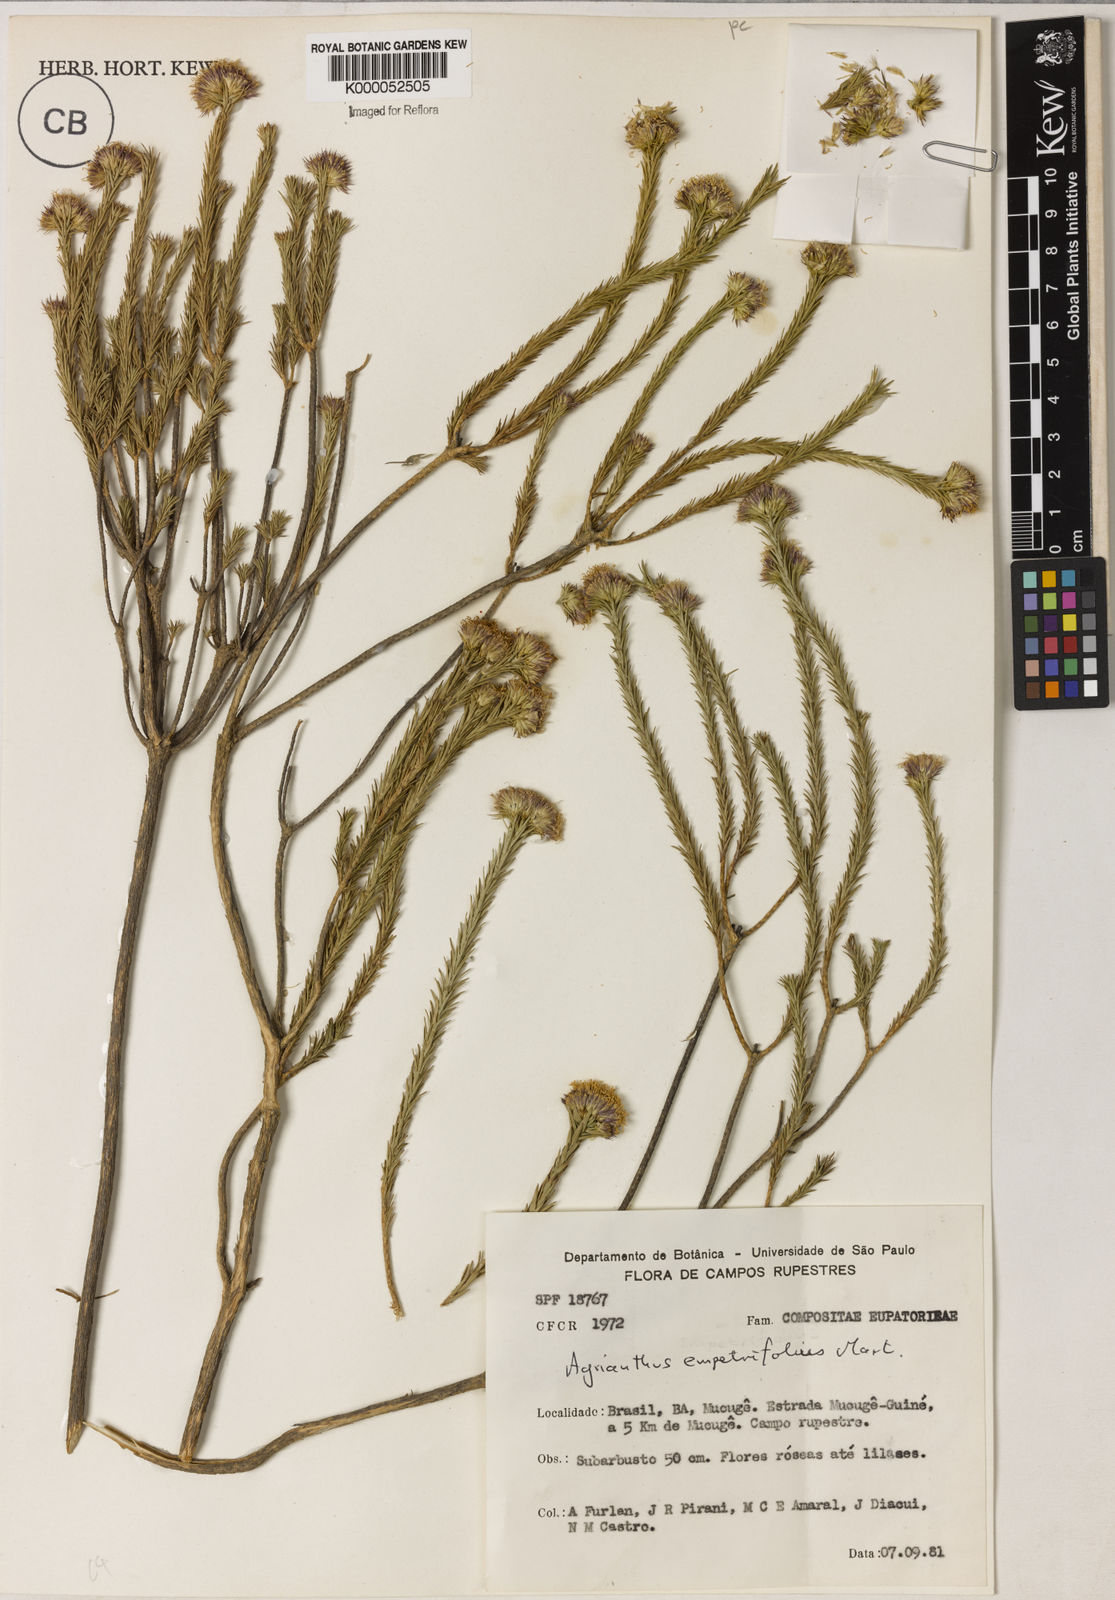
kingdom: Plantae
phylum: Tracheophyta
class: Magnoliopsida
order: Asterales
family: Asteraceae
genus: Agrianthus
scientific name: Agrianthus
